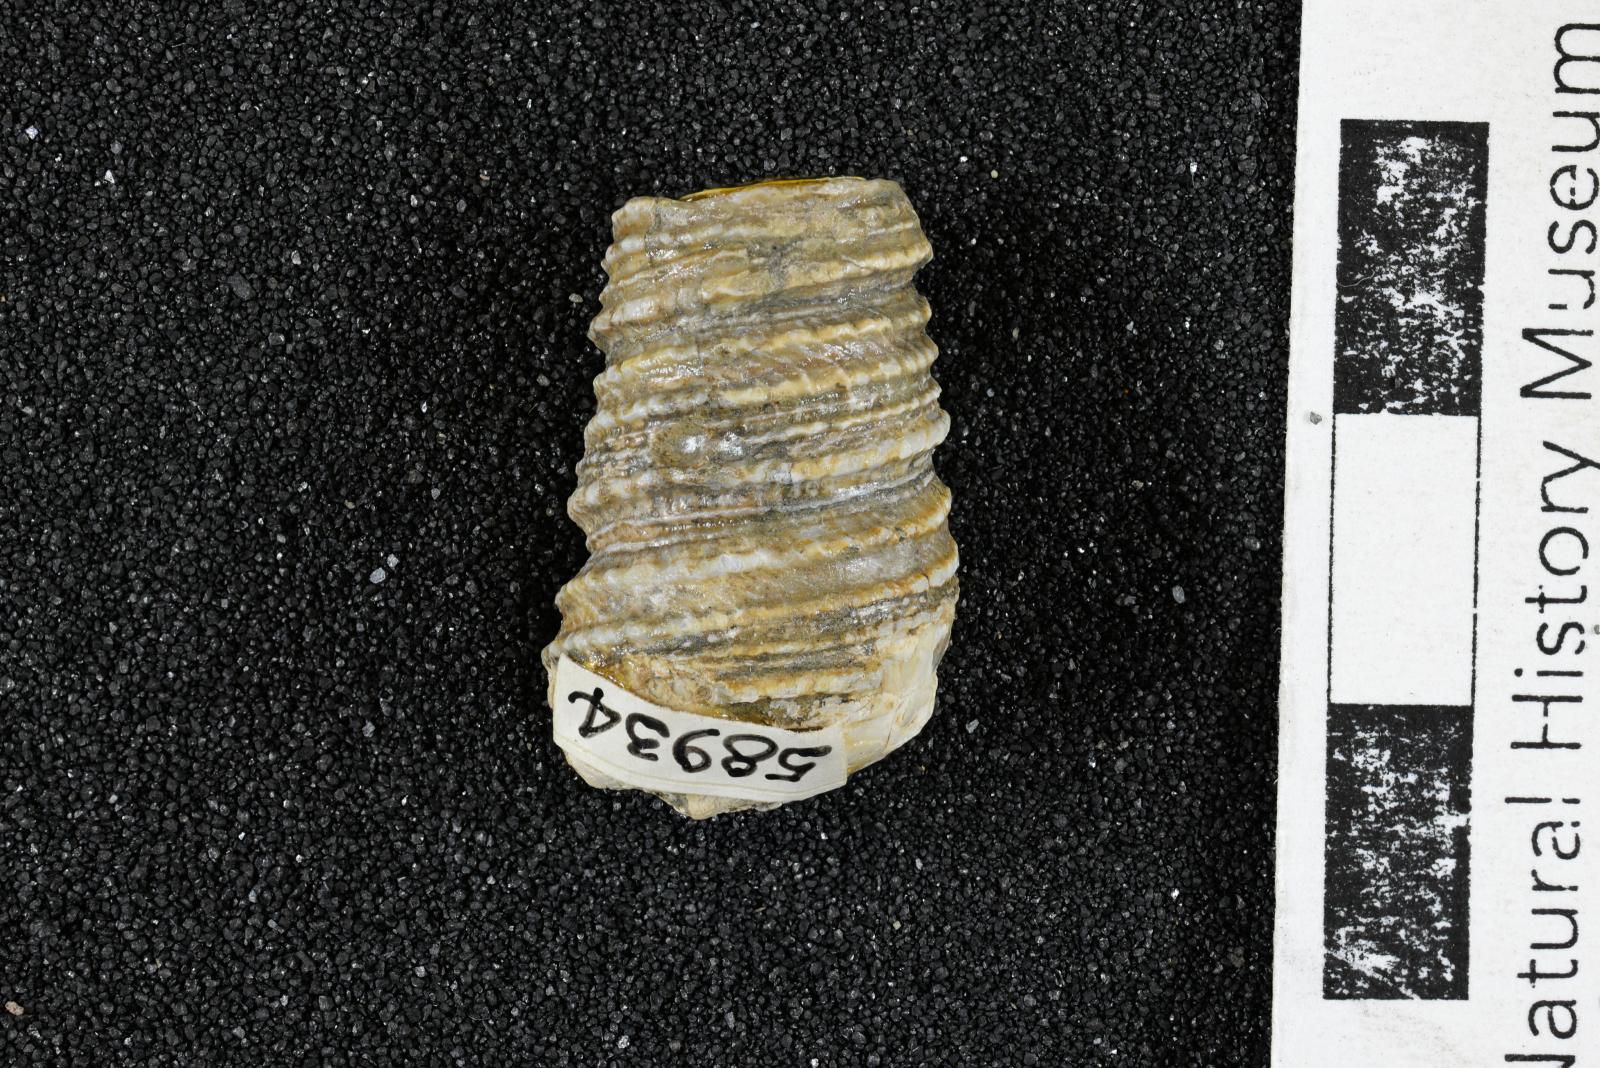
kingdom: Animalia
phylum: Mollusca
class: Gastropoda
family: Turritellidae
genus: Turritella
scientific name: Turritella packardi
